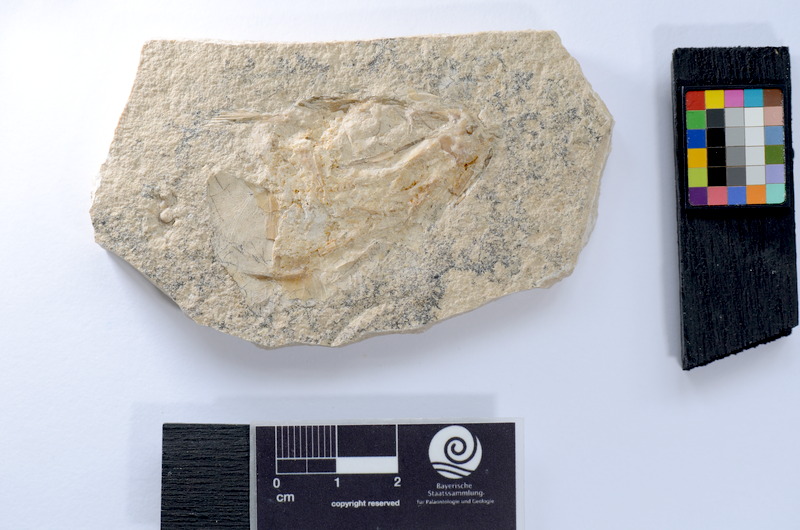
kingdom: Animalia
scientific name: Animalia
